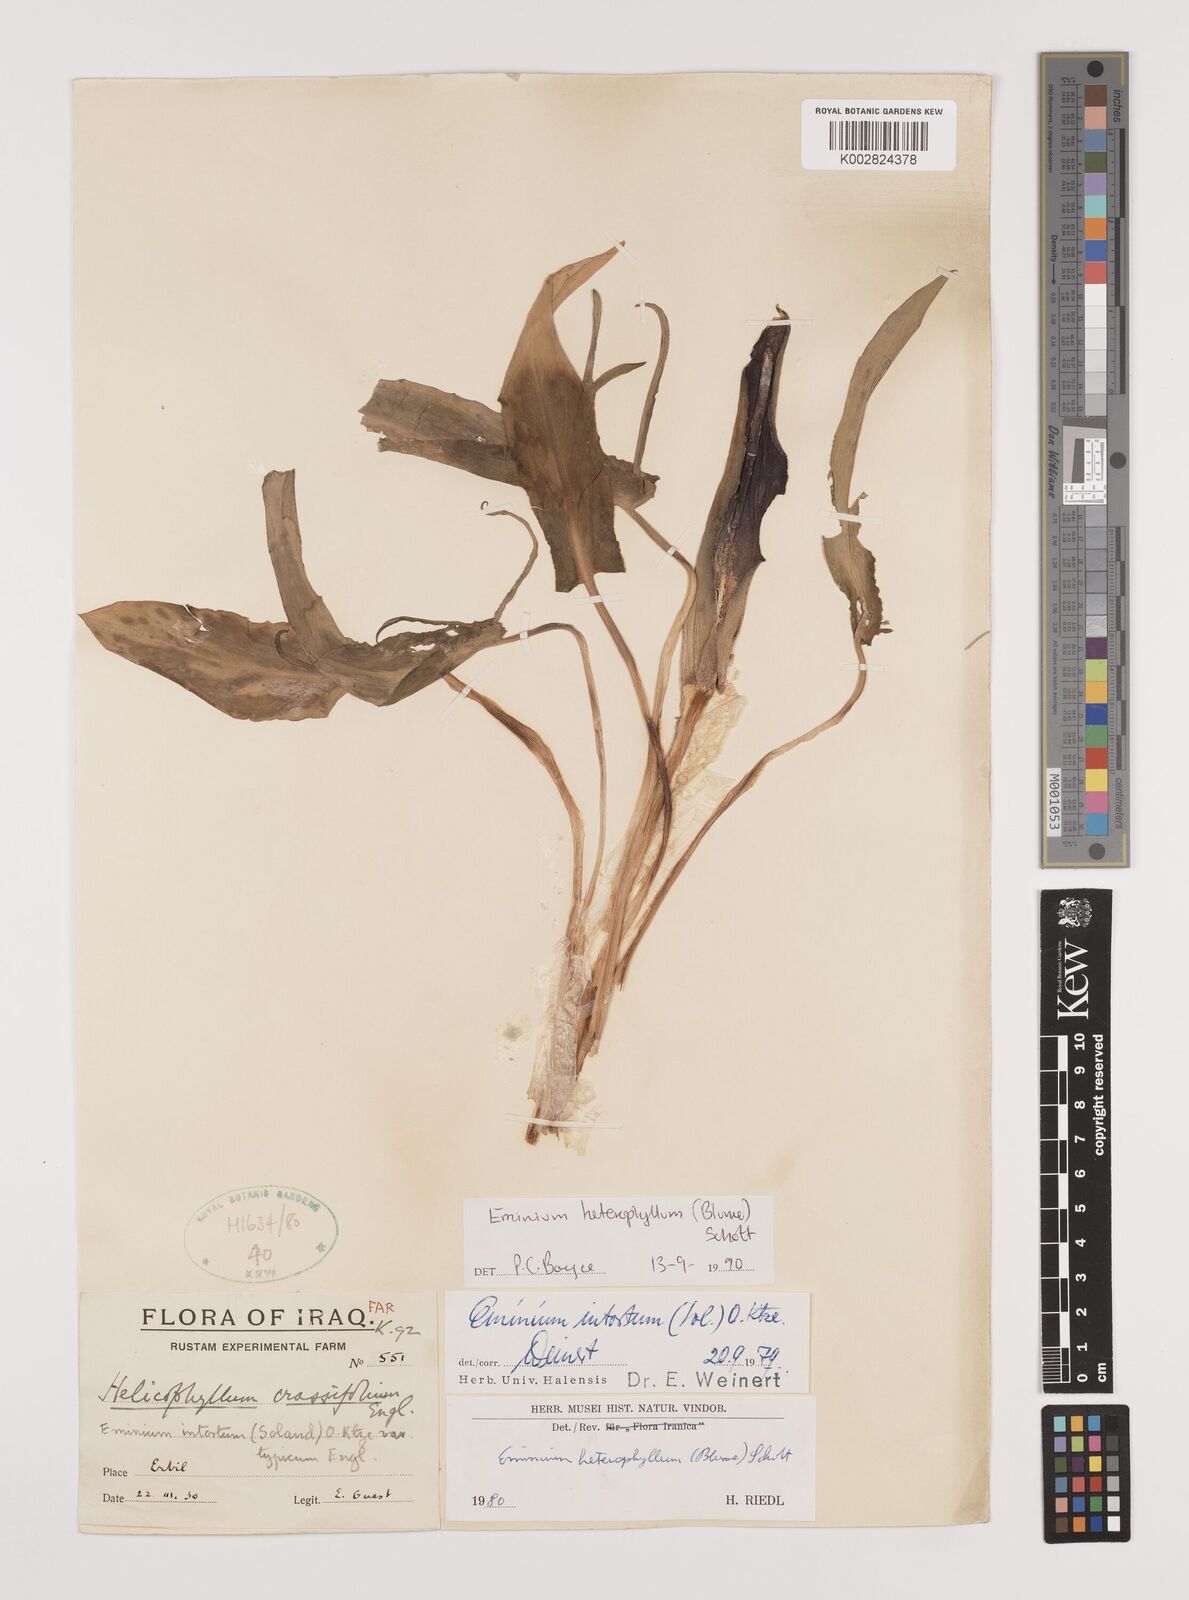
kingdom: Plantae
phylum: Tracheophyta
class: Liliopsida
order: Alismatales
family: Araceae
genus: Eminium
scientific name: Eminium rauwolffii
